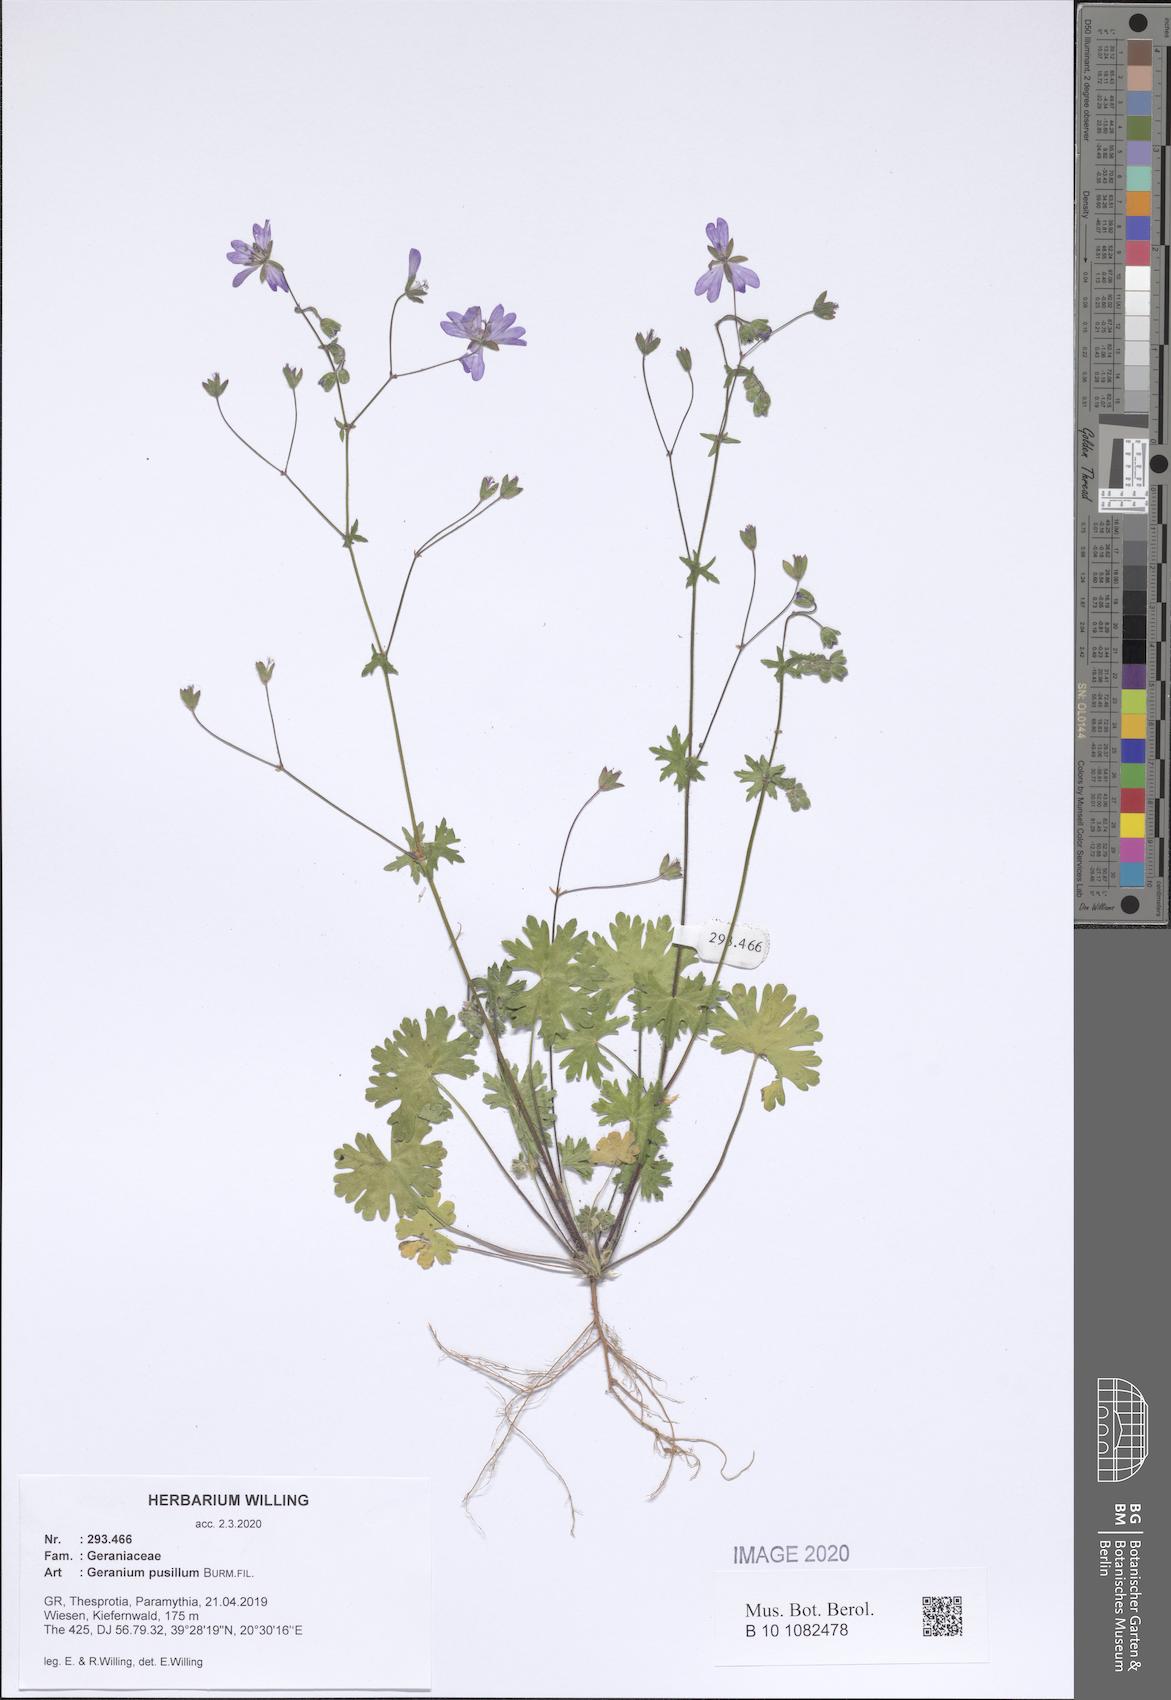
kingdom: Plantae
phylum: Tracheophyta
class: Magnoliopsida
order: Geraniales
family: Geraniaceae
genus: Geranium
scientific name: Geranium pusillum
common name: Small geranium
